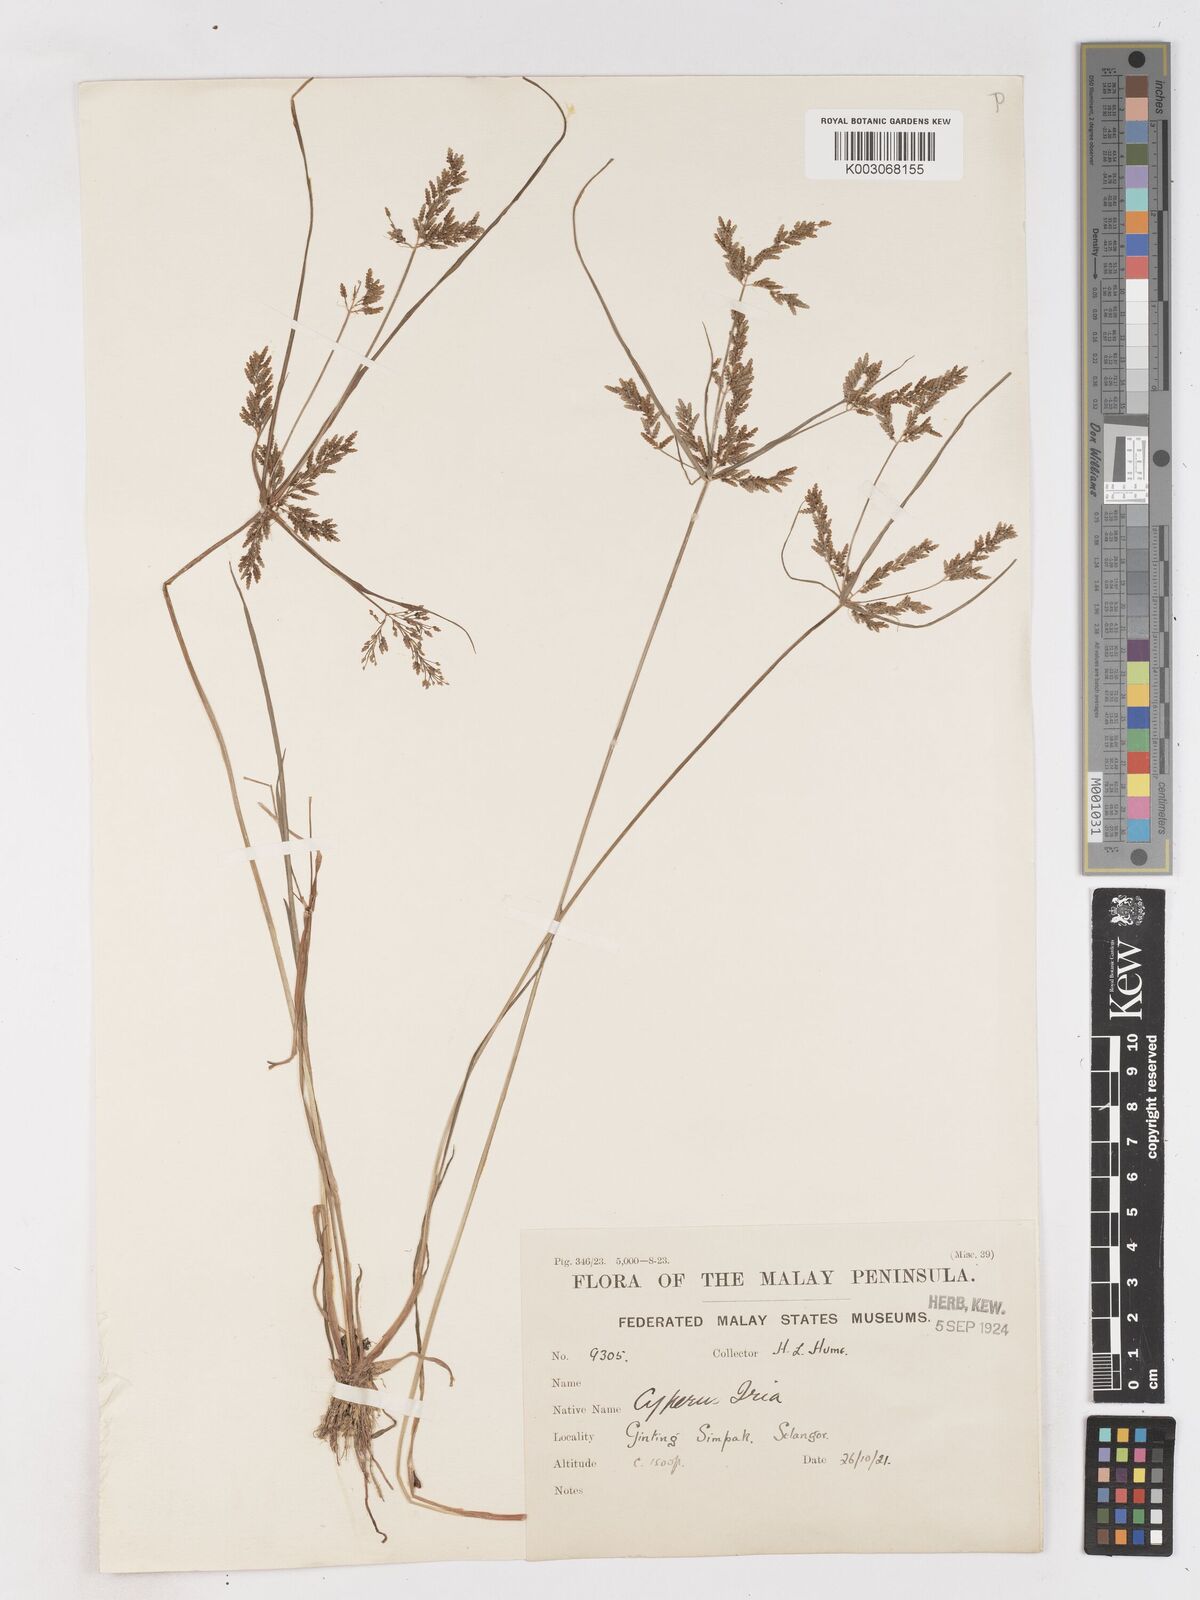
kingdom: Plantae
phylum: Tracheophyta
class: Liliopsida
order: Poales
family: Cyperaceae
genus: Cyperus
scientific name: Cyperus iria
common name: Ricefield flatsedge
